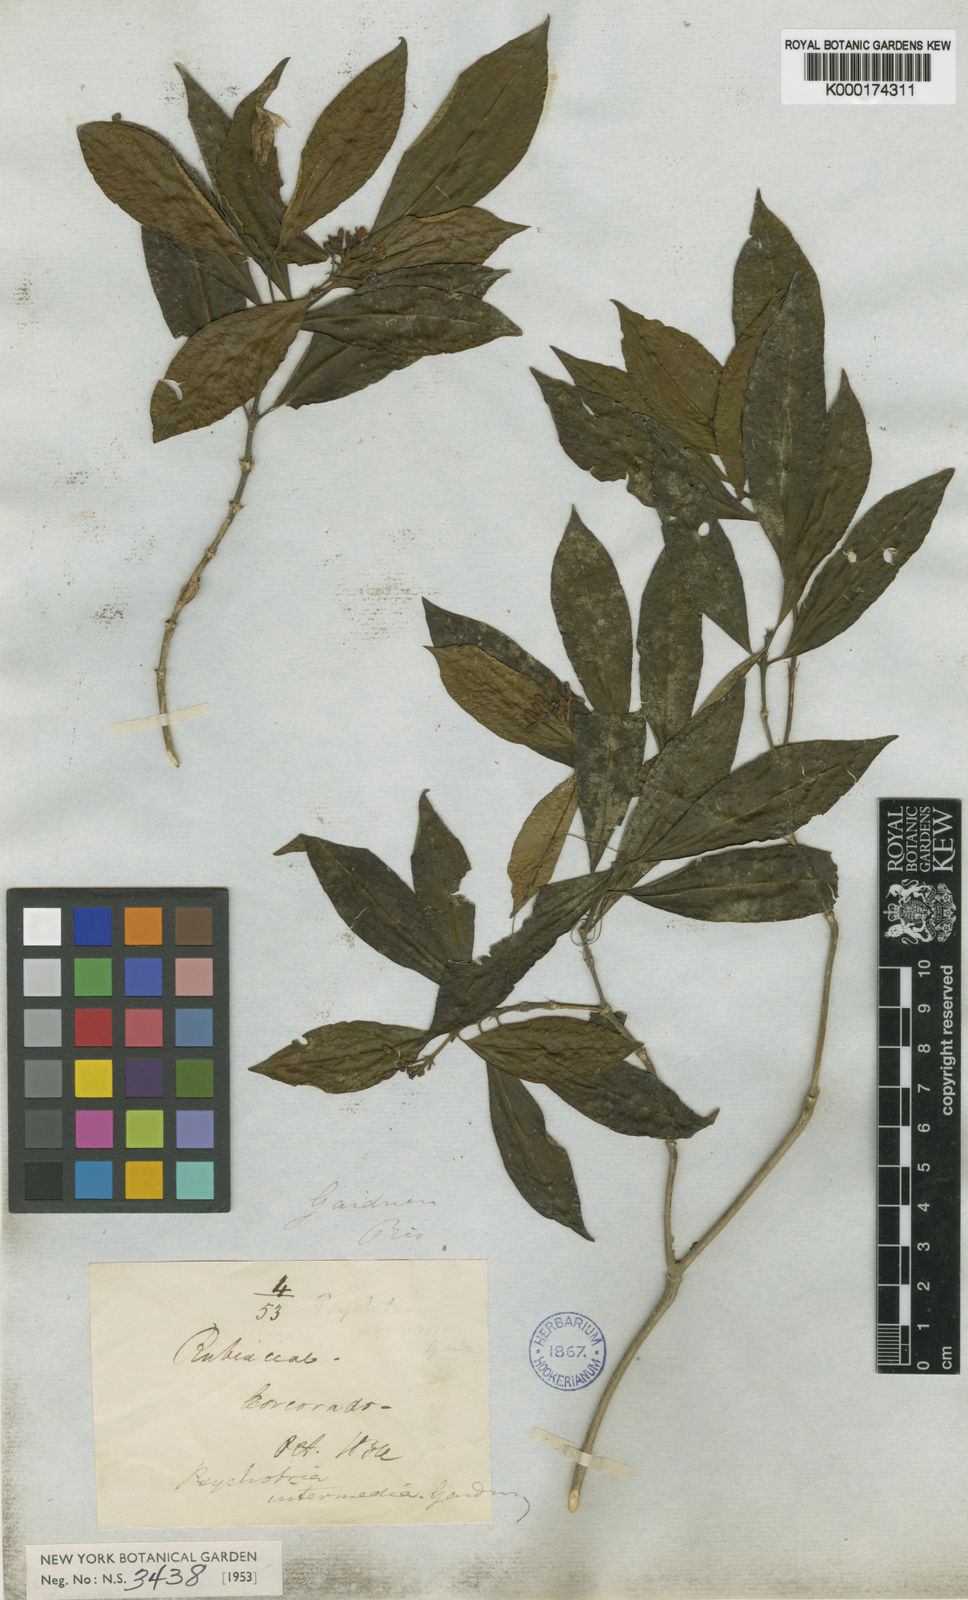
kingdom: Plantae
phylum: Tracheophyta
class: Magnoliopsida
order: Gentianales
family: Rubiaceae
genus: Psychotria
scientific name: Psychotria intermedia
